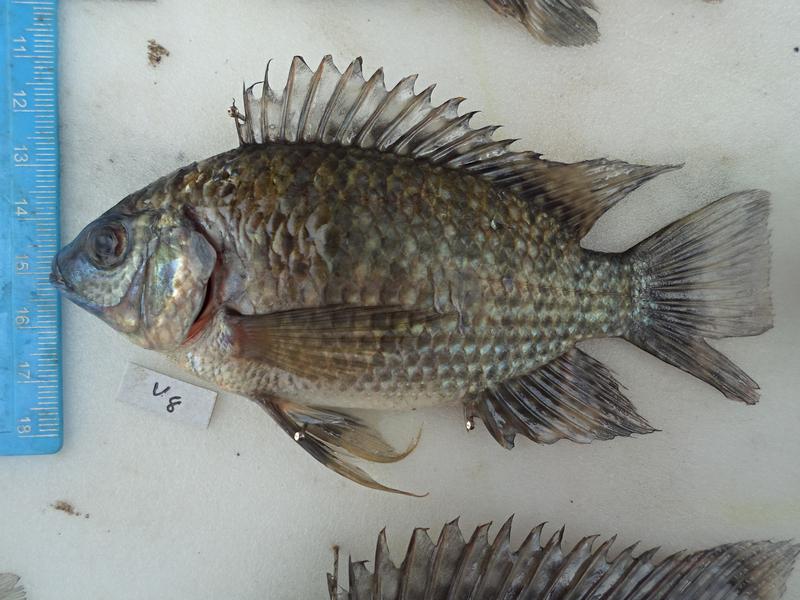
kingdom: Animalia
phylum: Chordata
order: Perciformes
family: Cichlidae
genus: Oreochromis
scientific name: Oreochromis leucostictus
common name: Blue spotted tilapia
